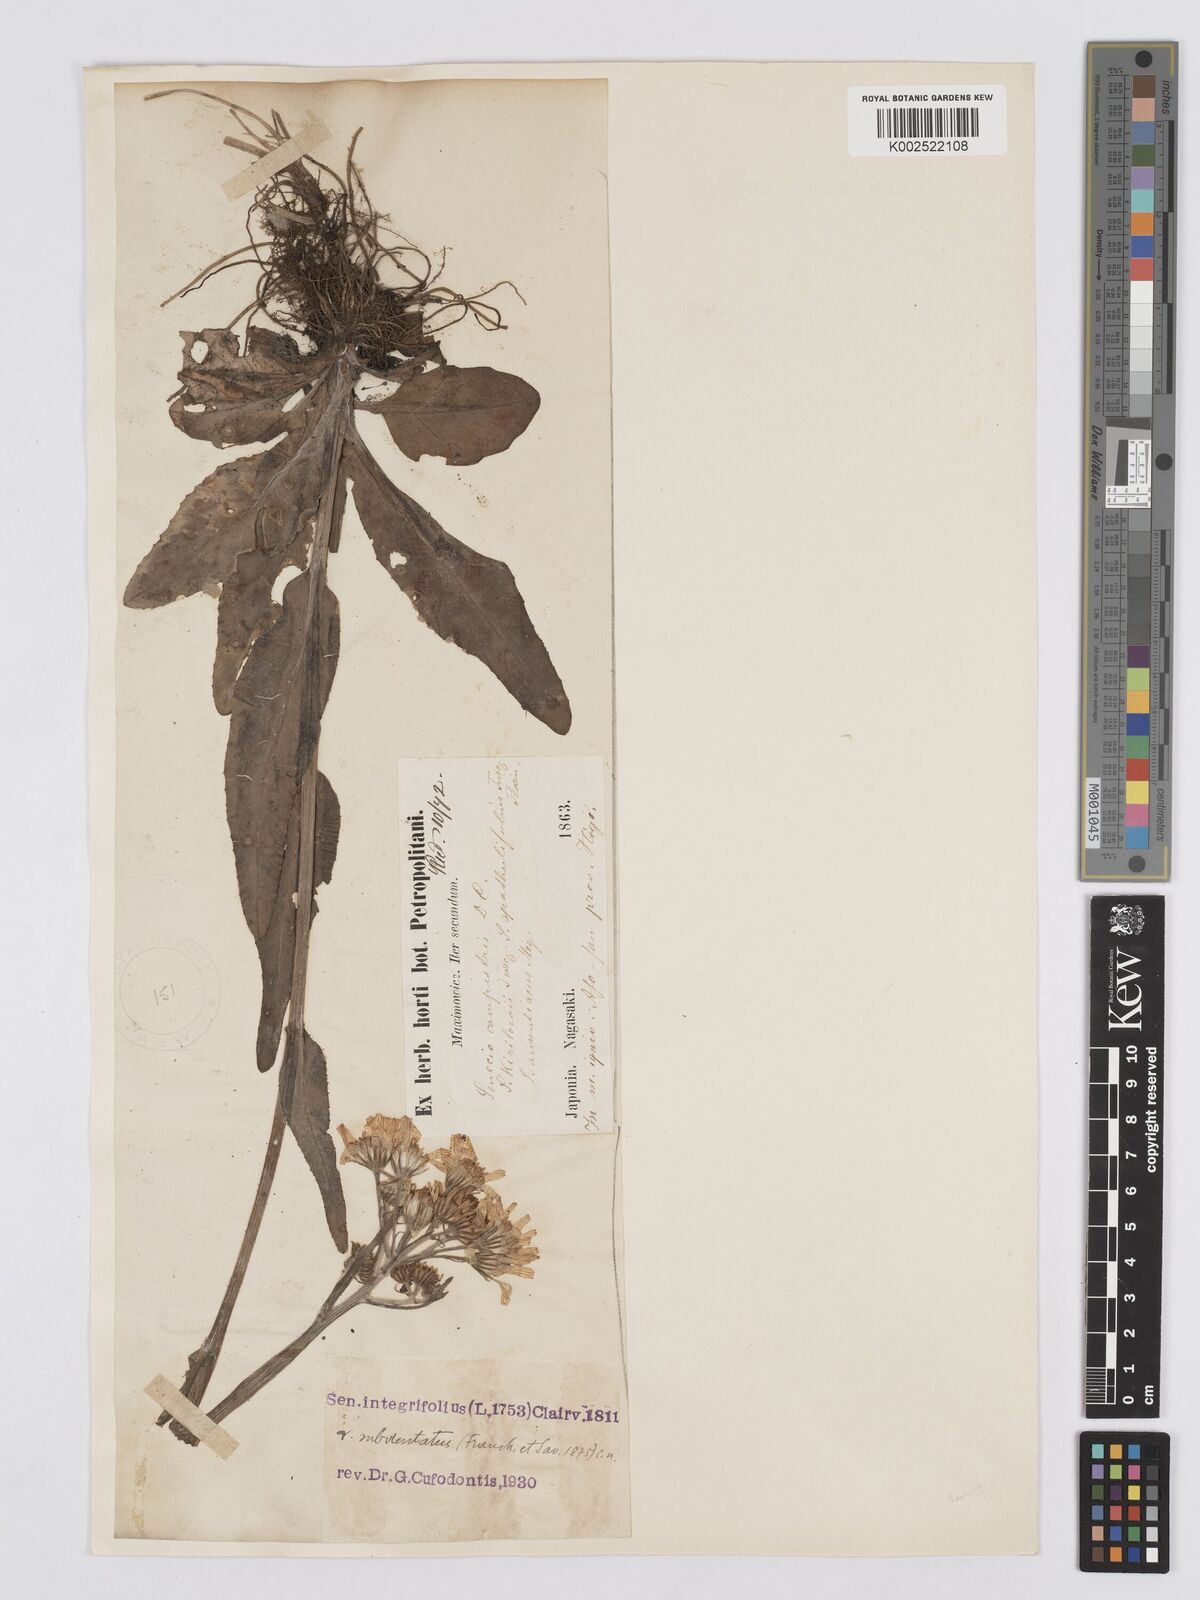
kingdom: Plantae
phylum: Tracheophyta
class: Magnoliopsida
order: Asterales
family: Asteraceae
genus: Tephroseris
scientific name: Tephroseris kirilowii
